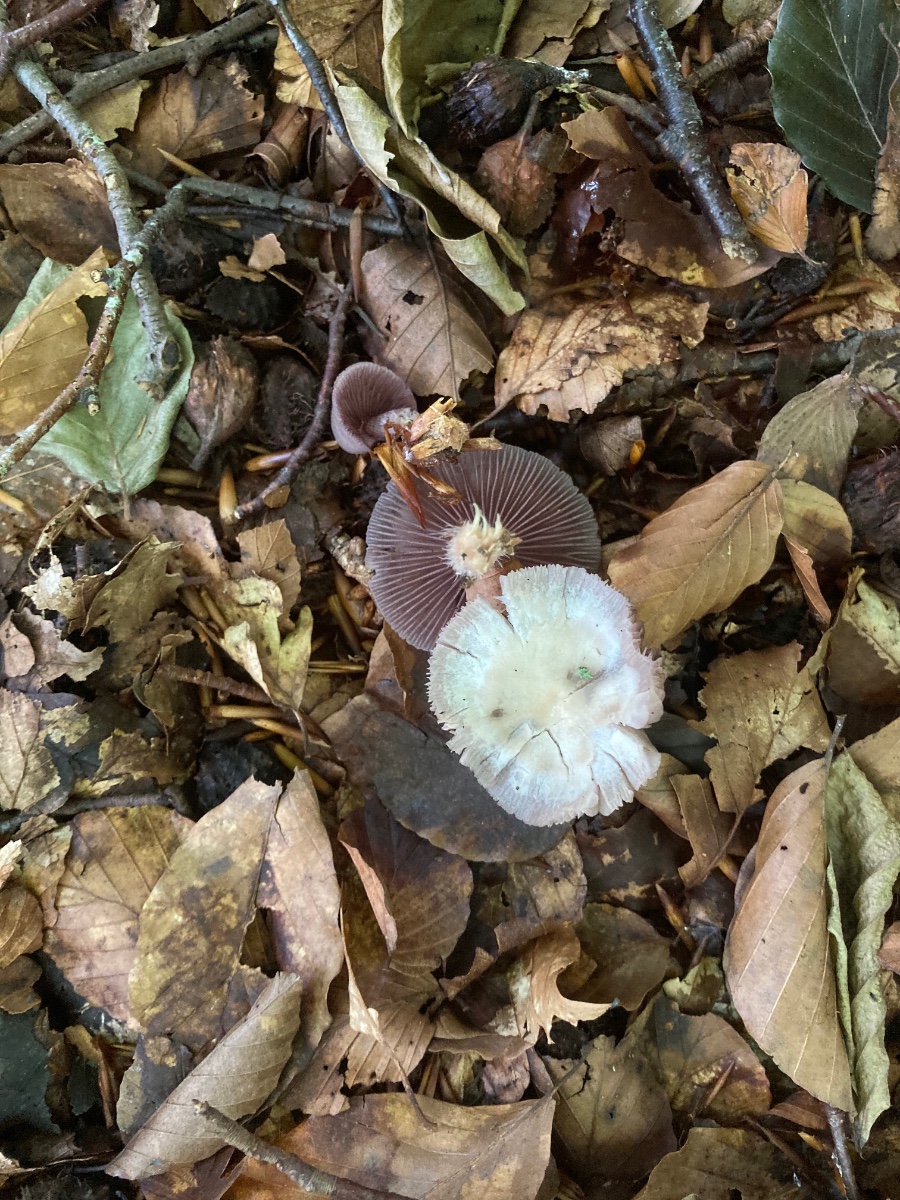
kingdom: Fungi
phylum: Basidiomycota
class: Agaricomycetes
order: Agaricales
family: Mycenaceae
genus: Mycena
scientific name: Mycena pelianthina
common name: mørkbladet huesvamp
